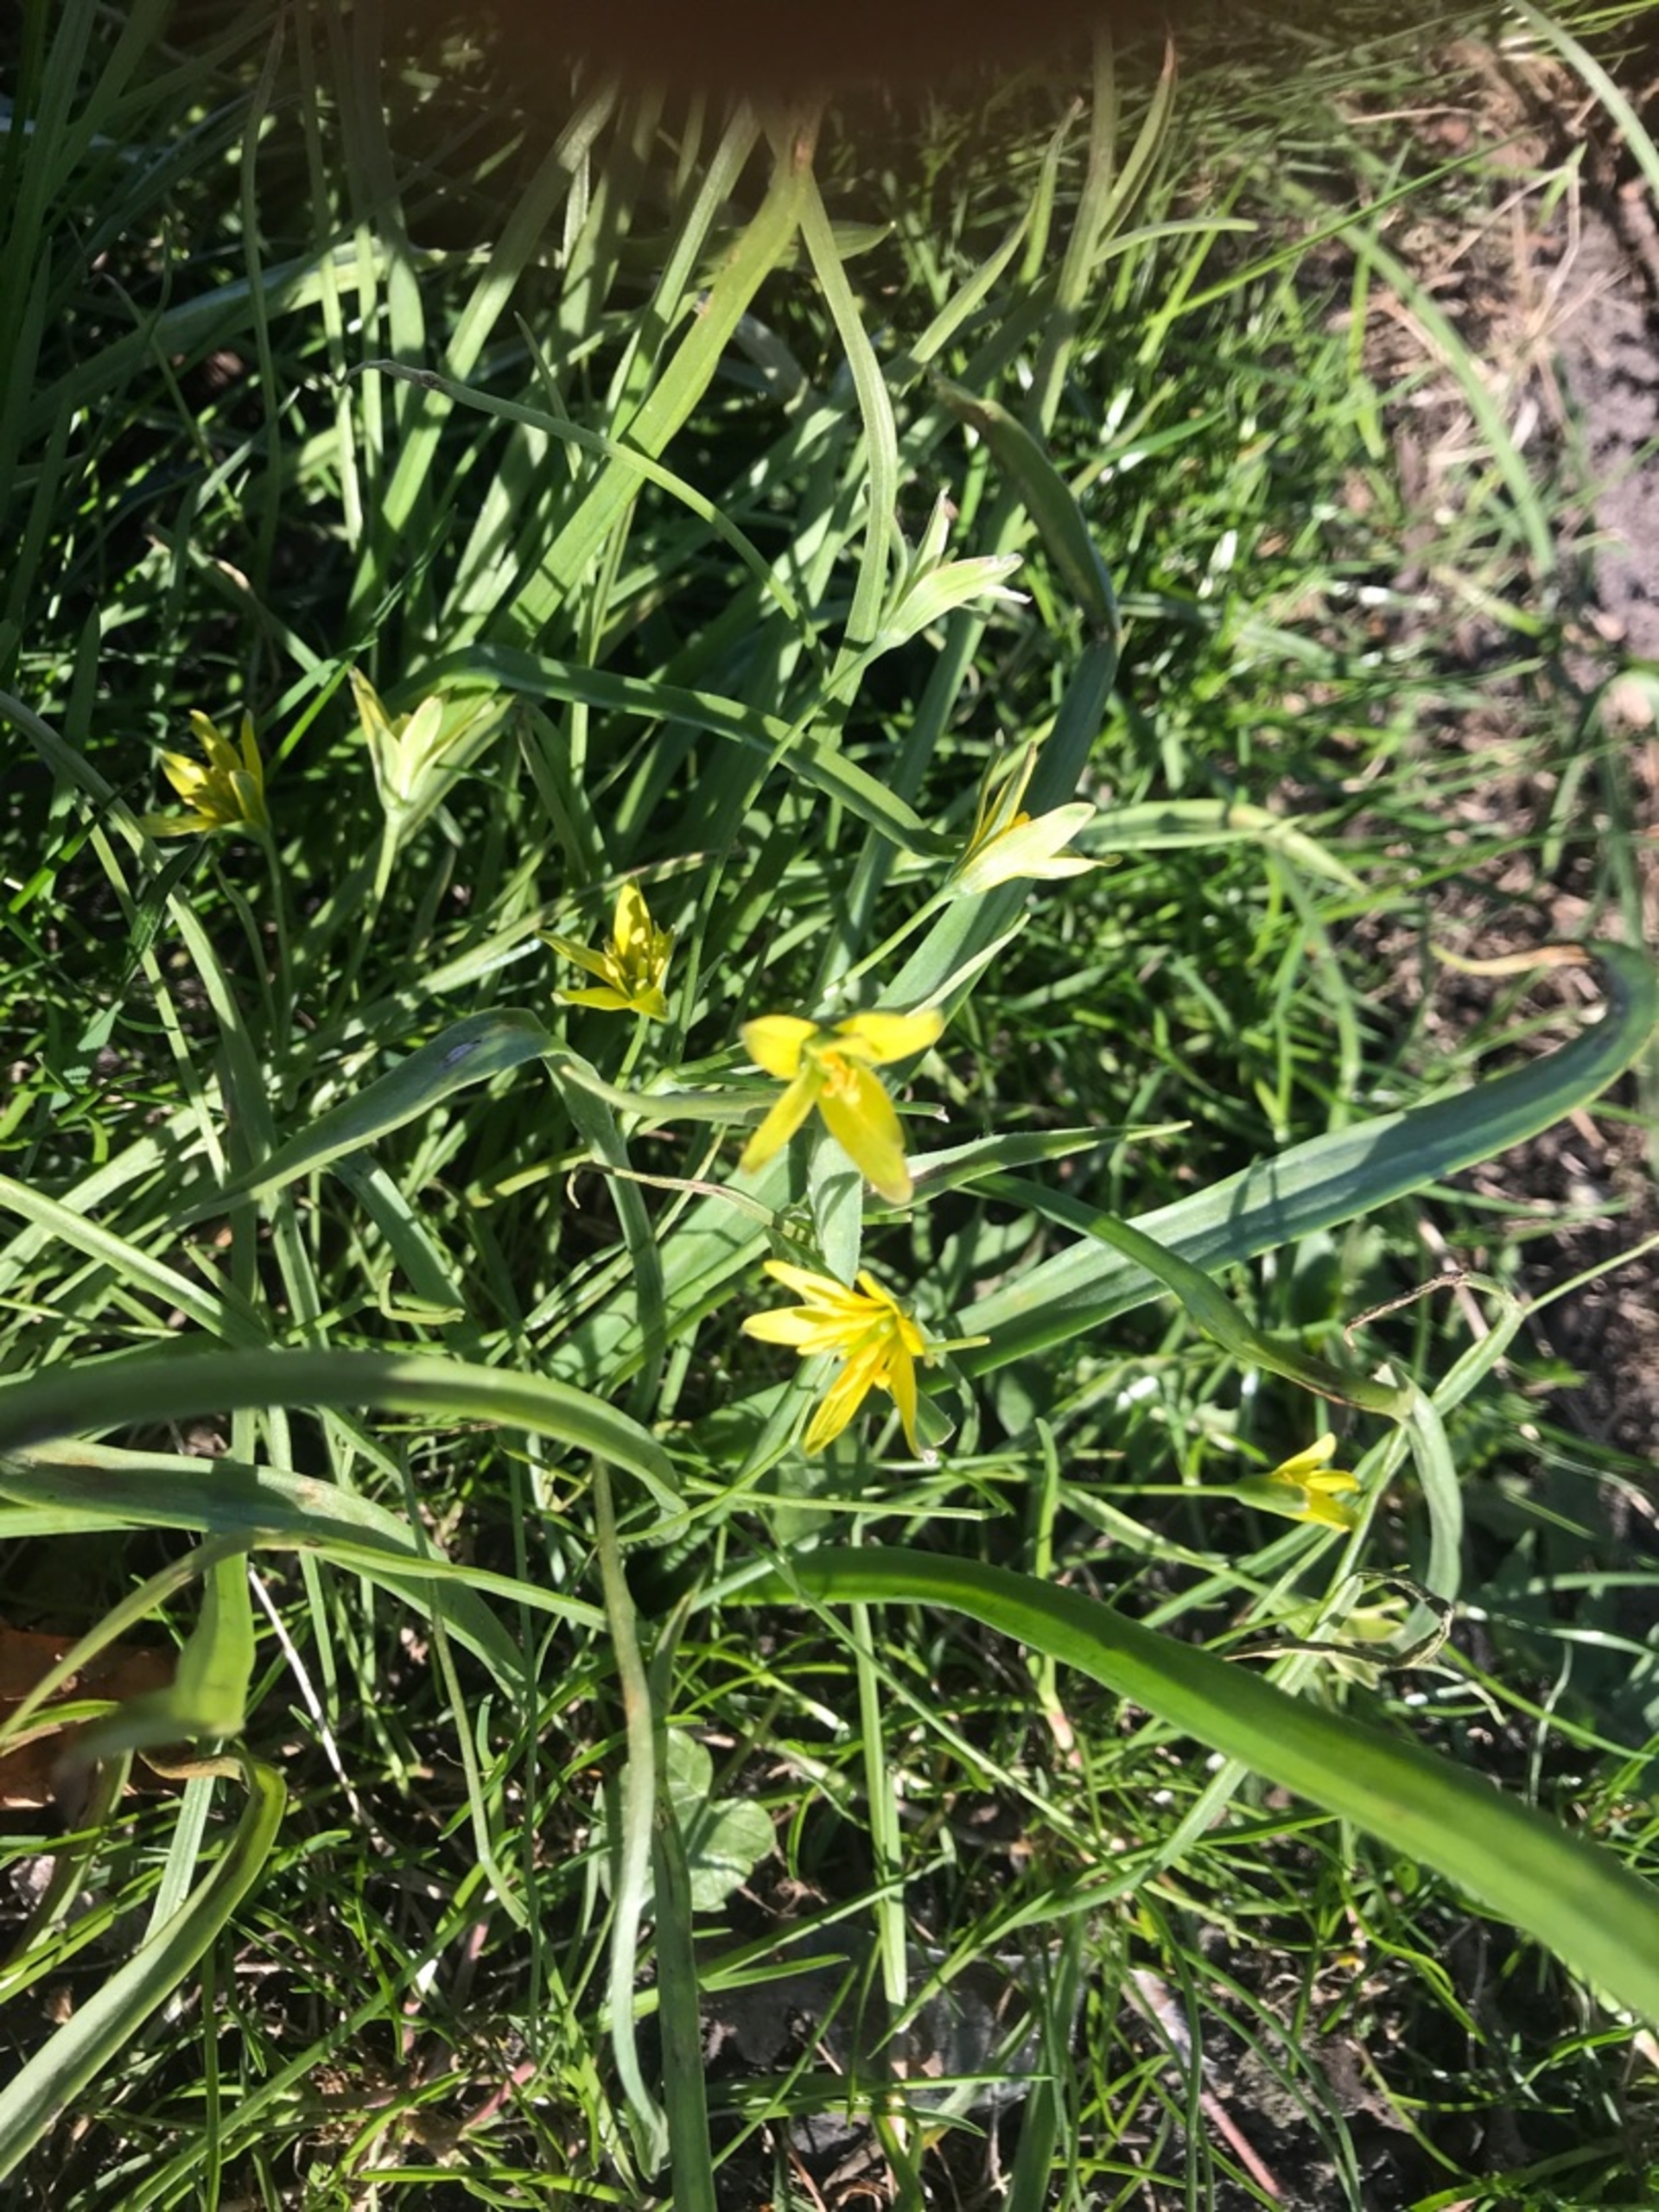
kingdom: Plantae
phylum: Tracheophyta
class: Liliopsida
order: Liliales
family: Liliaceae
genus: Gagea
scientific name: Gagea lutea
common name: Almindelig guldstjerne
